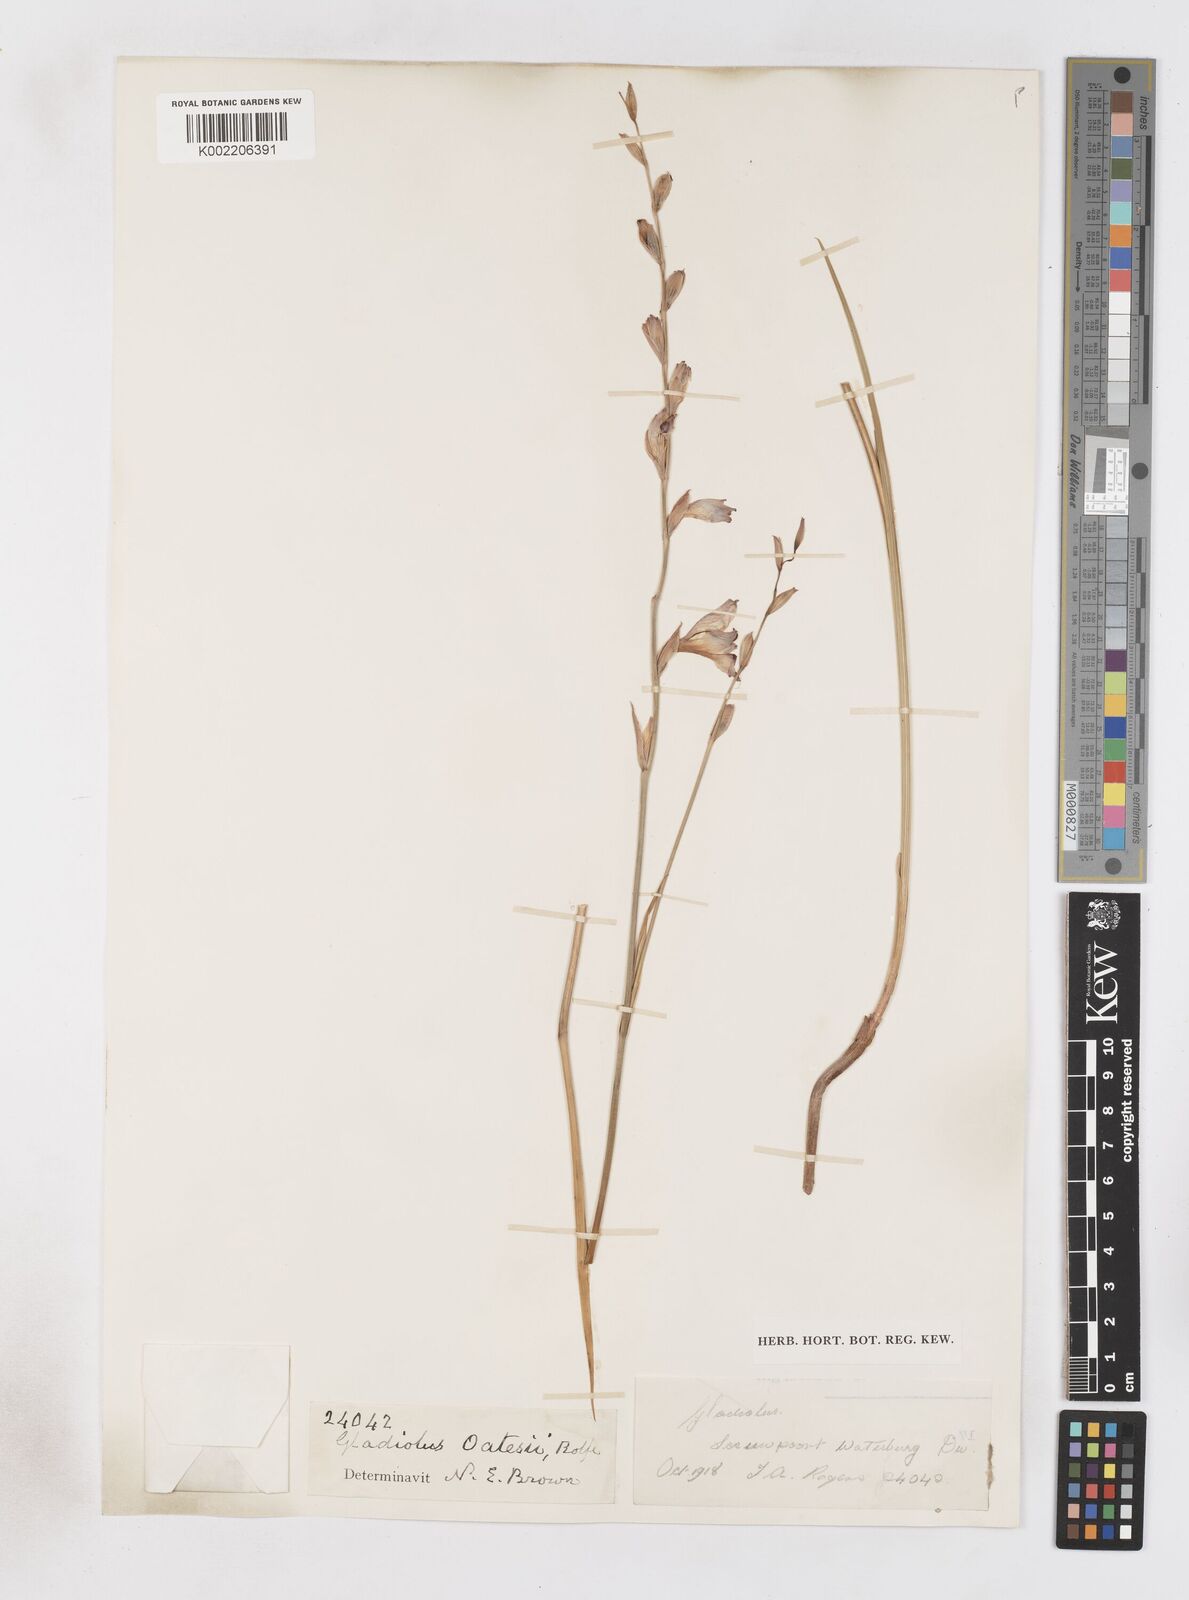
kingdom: Plantae
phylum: Tracheophyta
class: Liliopsida
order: Asparagales
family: Iridaceae
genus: Gladiolus
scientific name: Gladiolus unguiculatus
